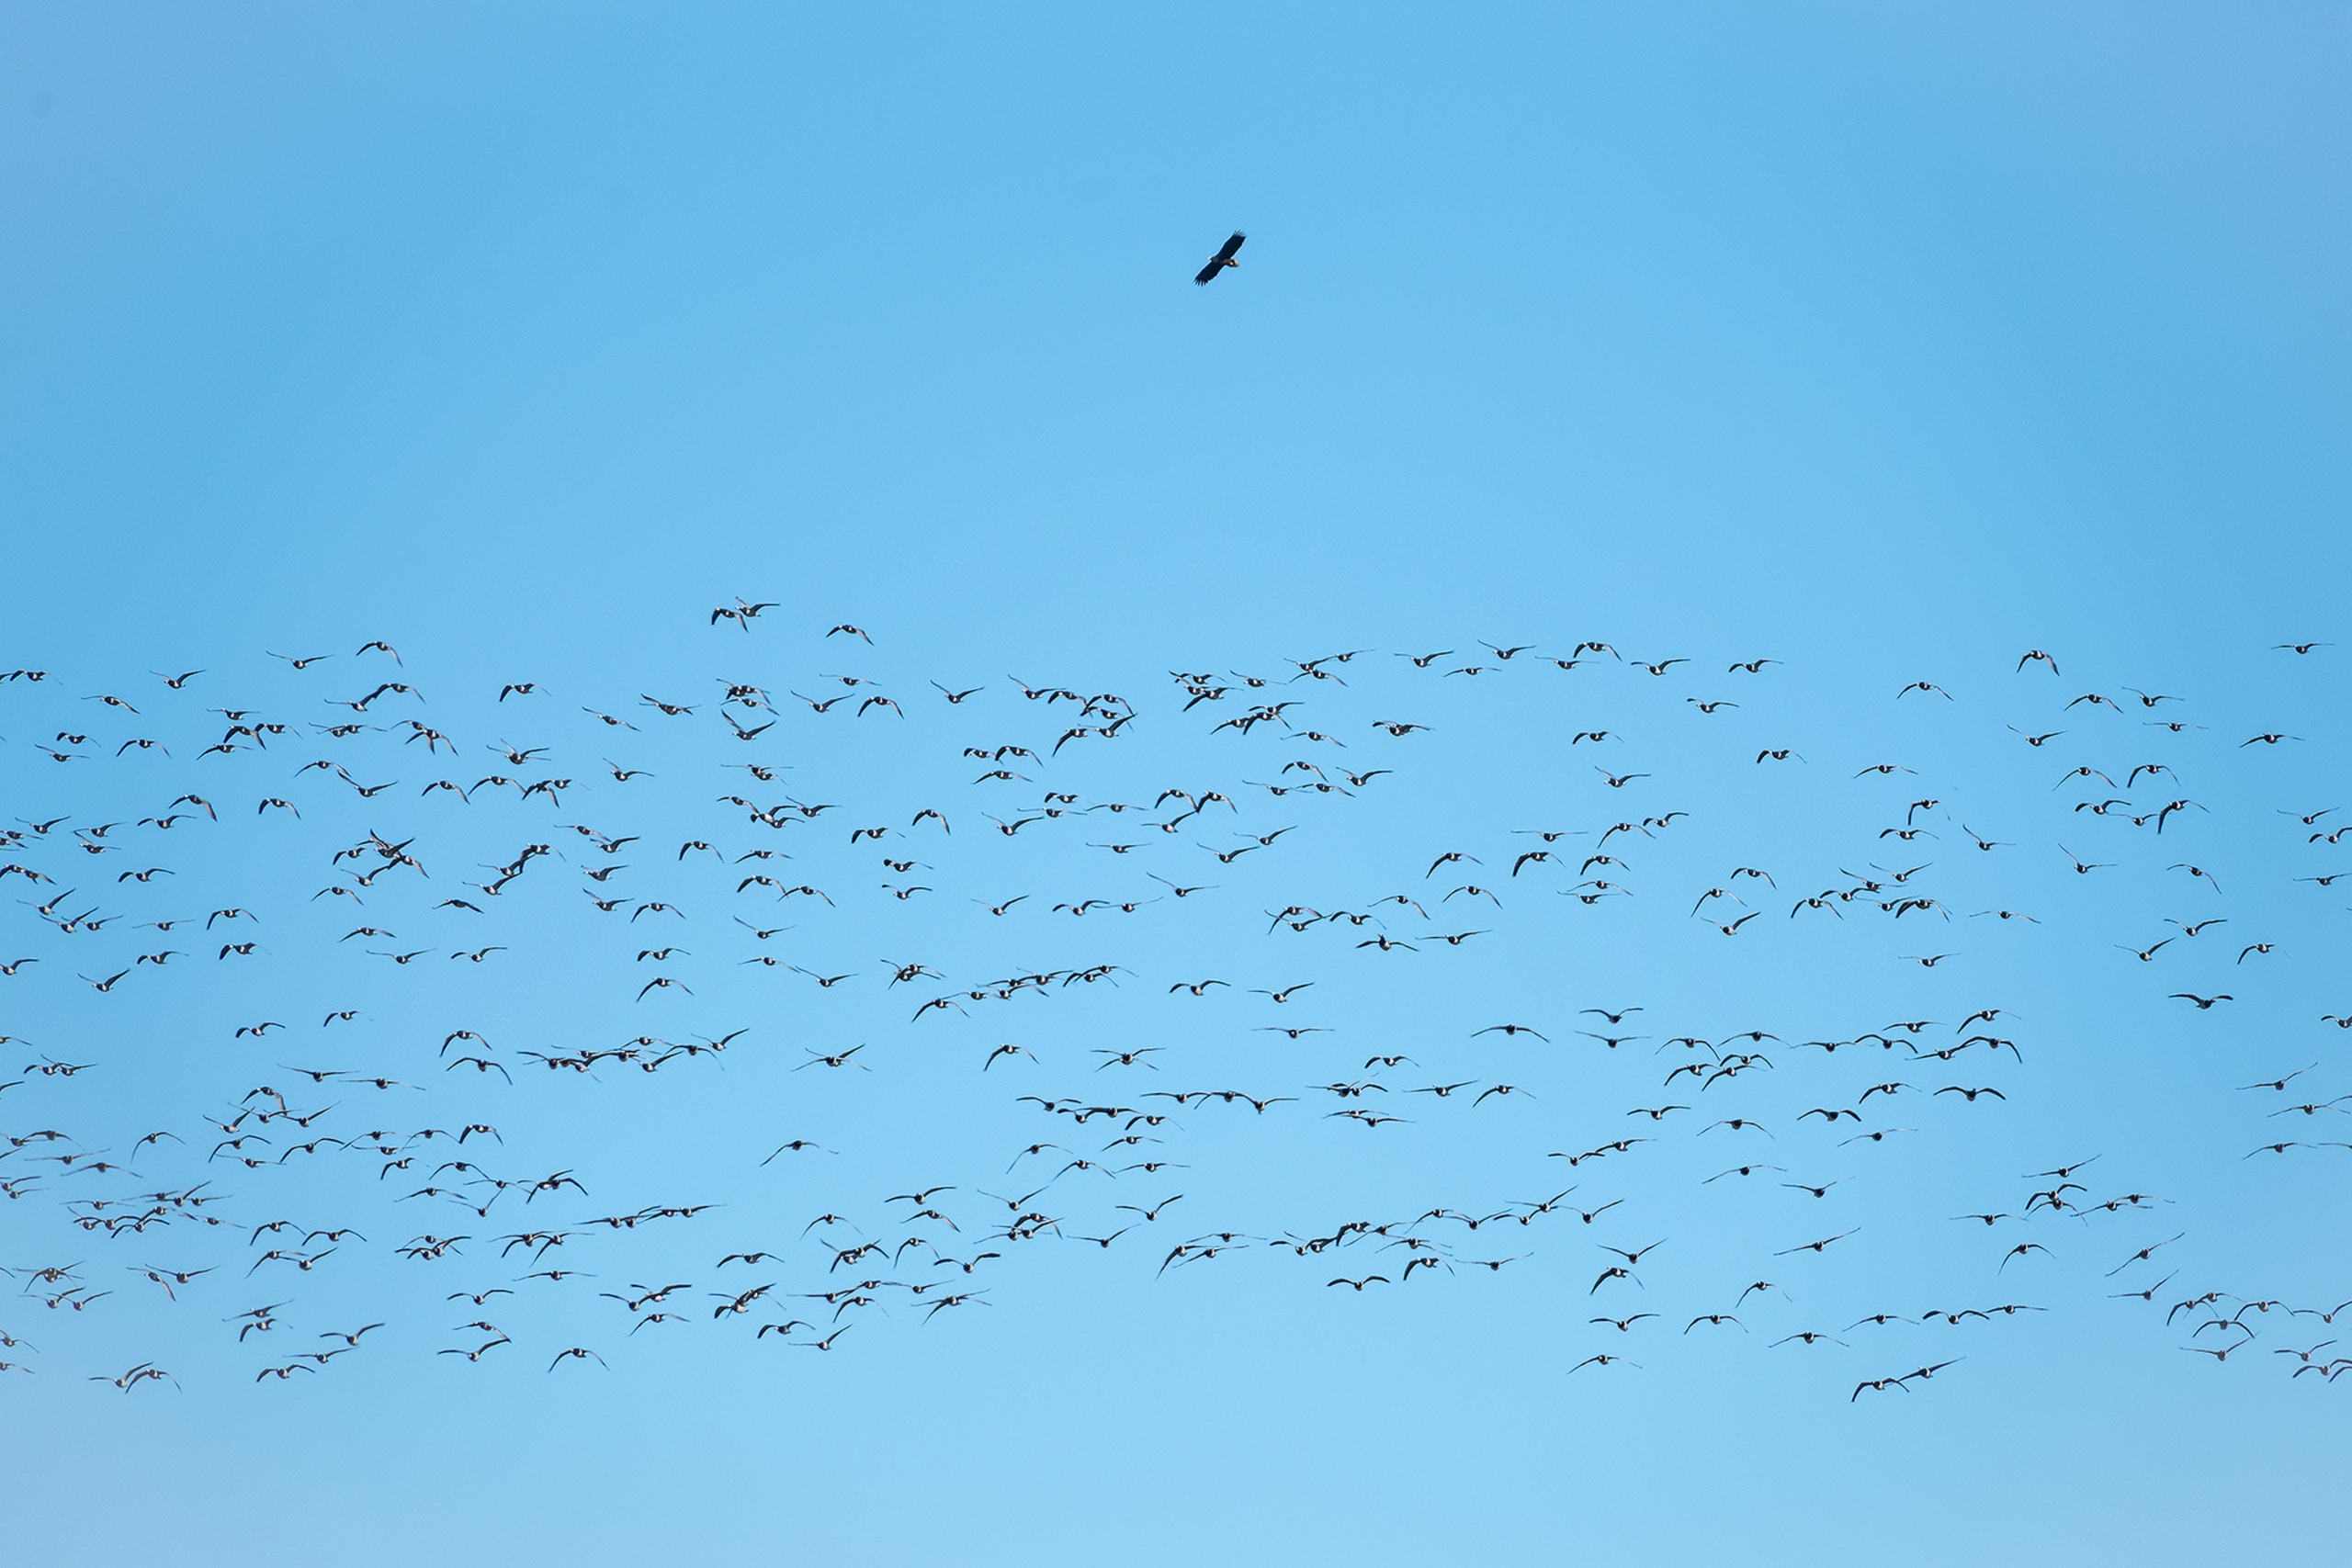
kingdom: Animalia
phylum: Chordata
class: Aves
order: Accipitriformes
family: Accipitridae
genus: Haliaeetus
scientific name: Haliaeetus albicilla
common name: Havørn
